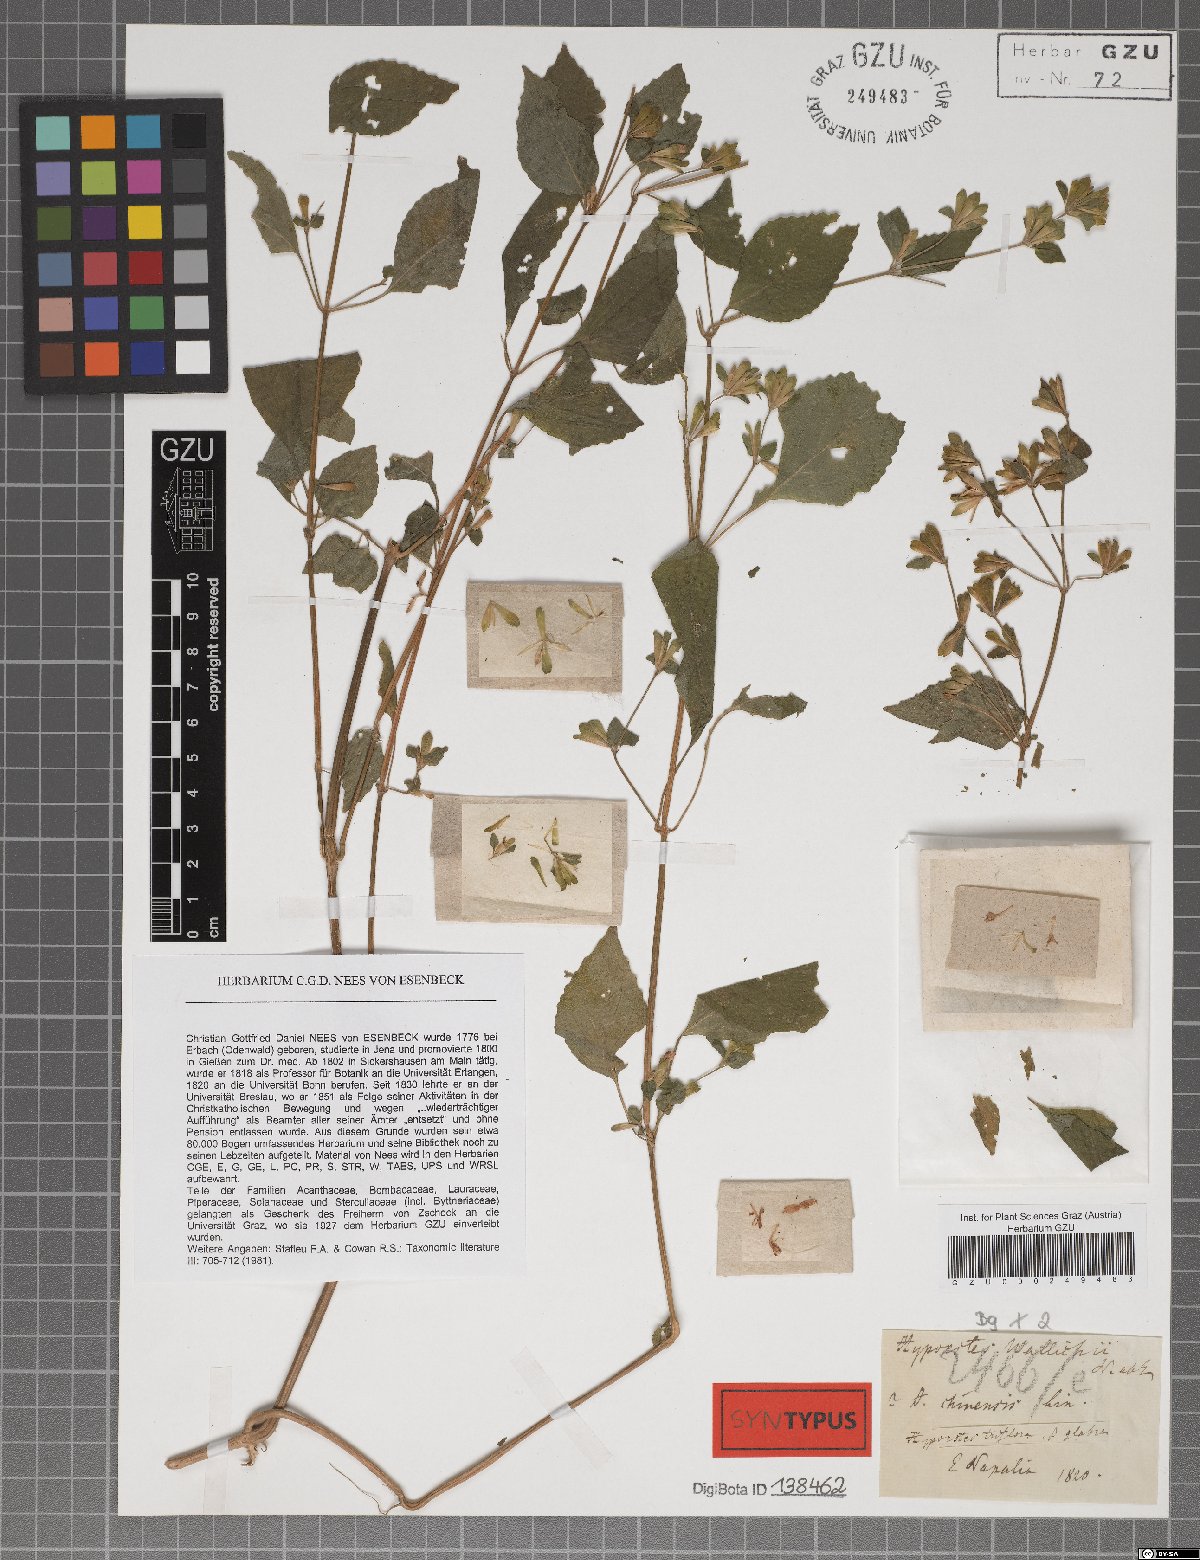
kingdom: Plantae
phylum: Tracheophyta
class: Magnoliopsida
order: Lamiales
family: Acanthaceae
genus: Hypoestes
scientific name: Hypoestes triflora
